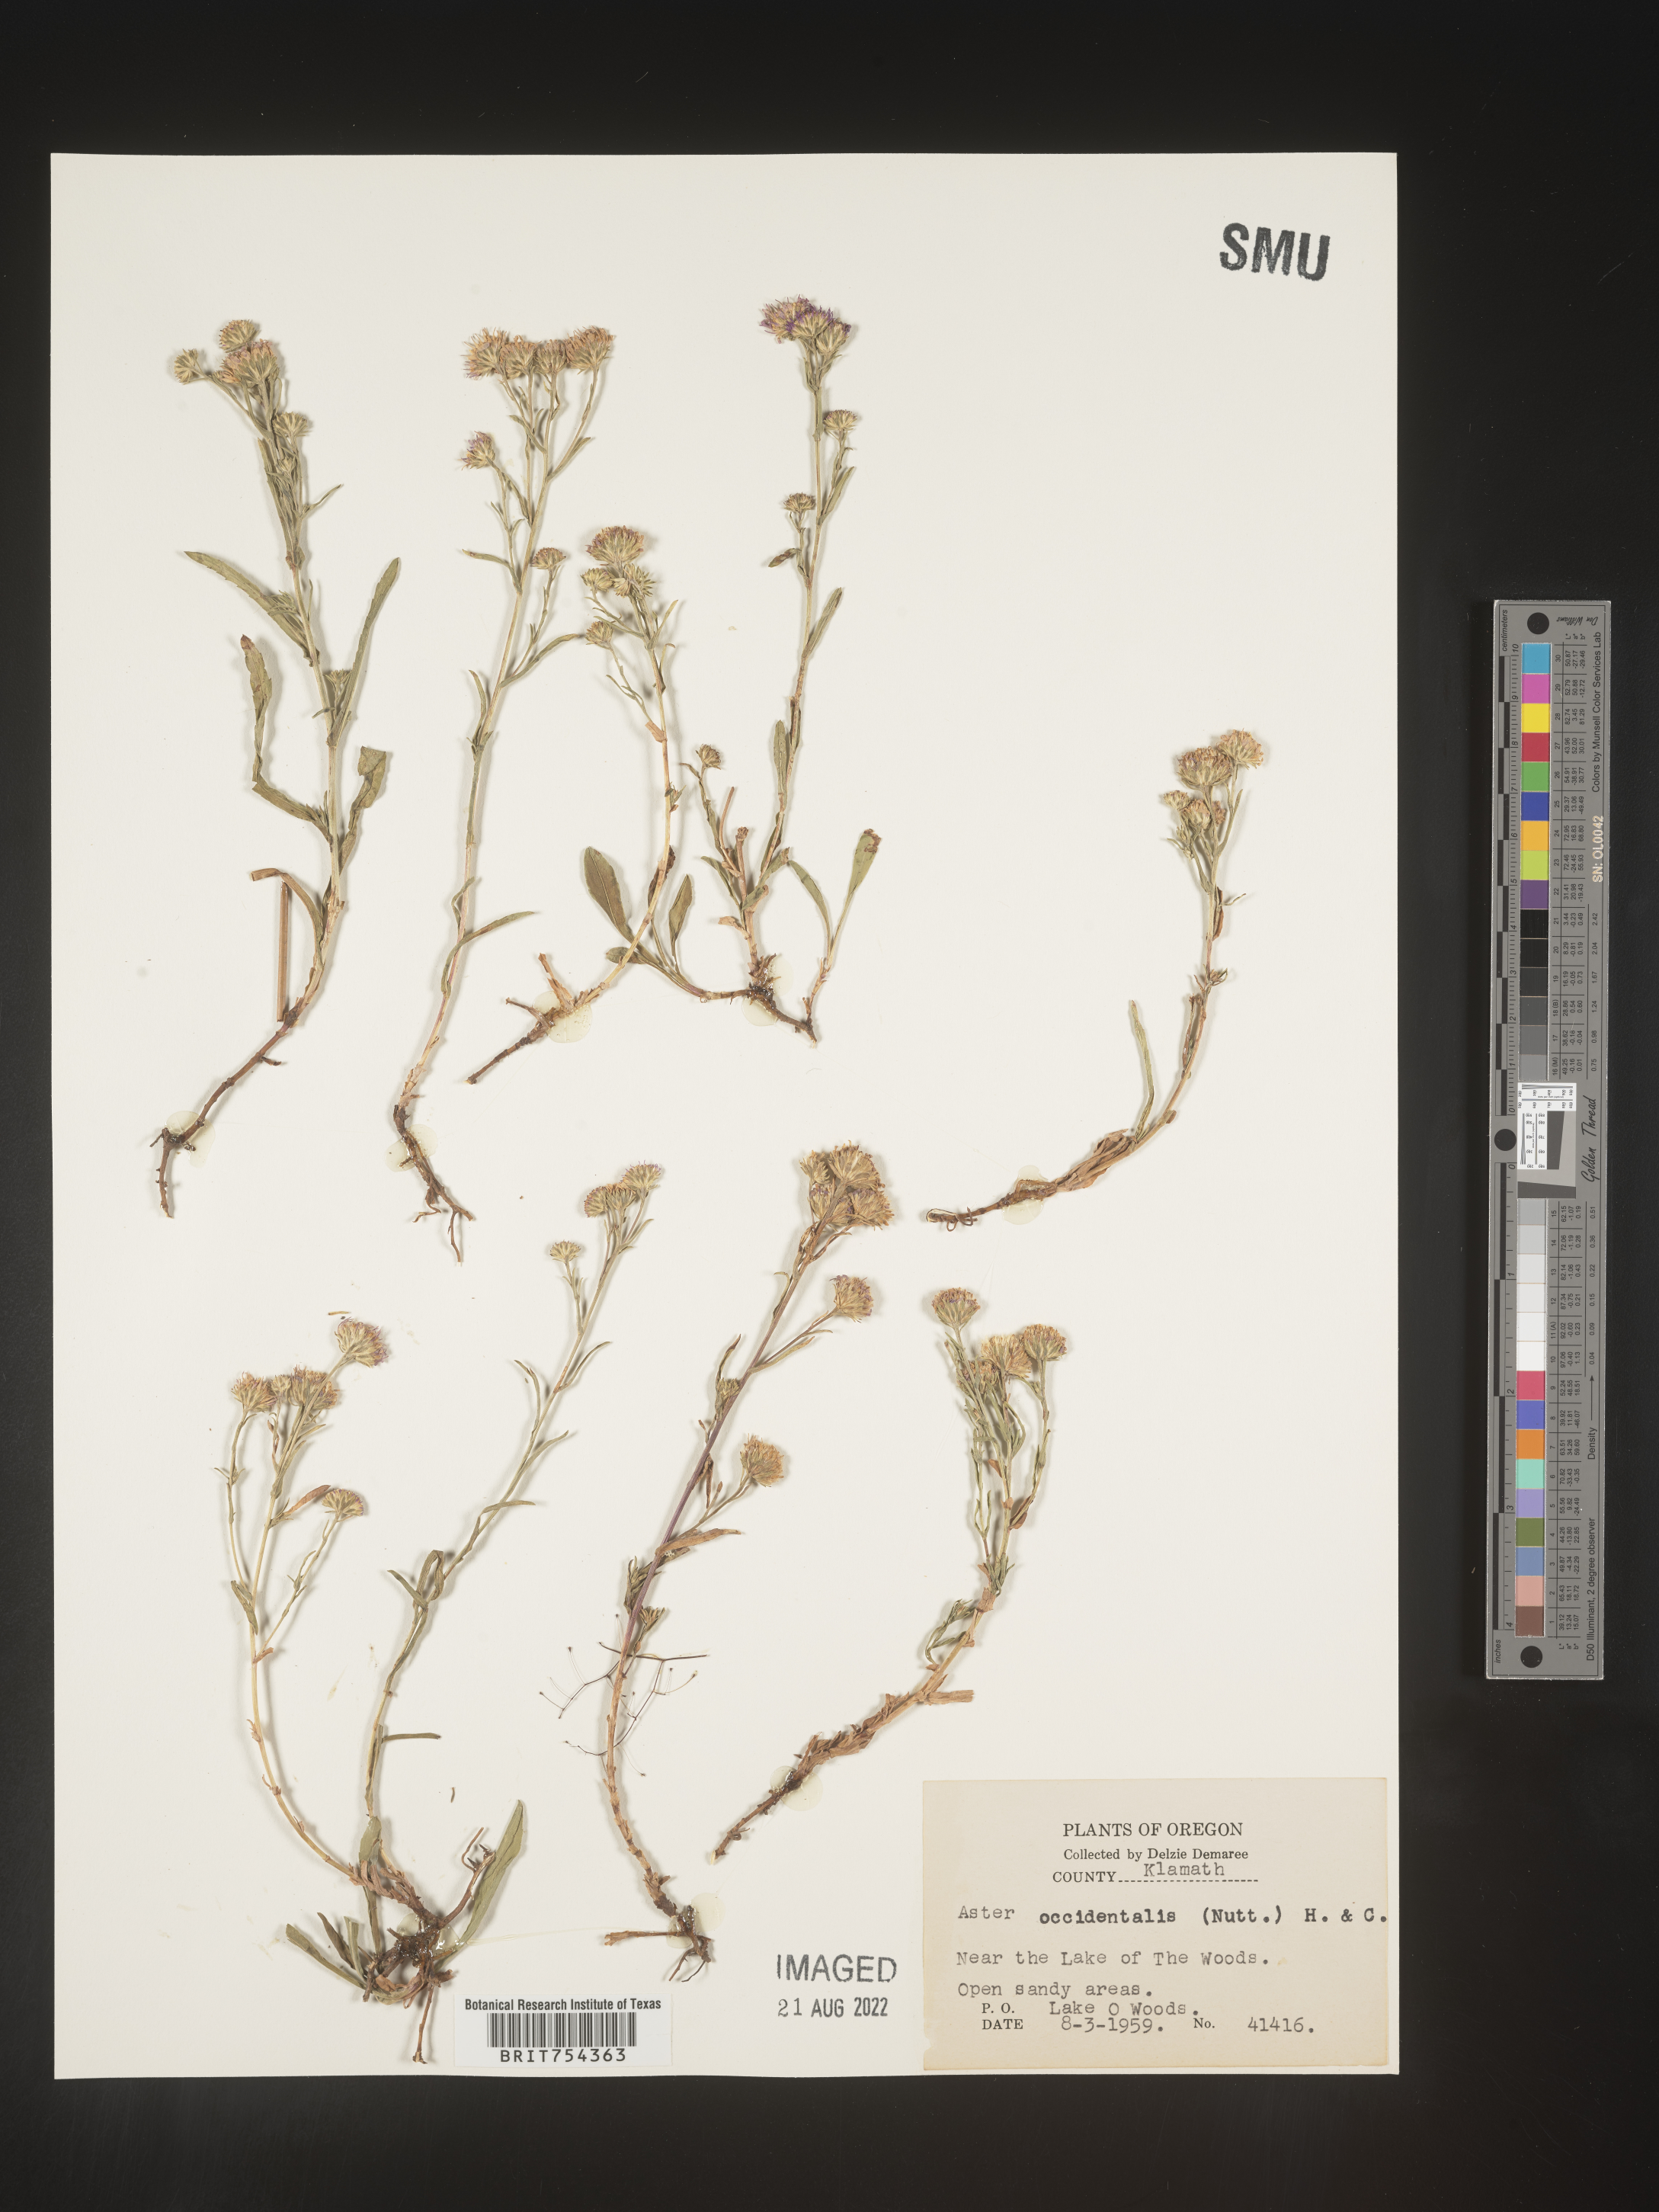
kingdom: Plantae
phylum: Tracheophyta
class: Magnoliopsida
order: Asterales
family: Asteraceae
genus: Symphyotrichum
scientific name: Symphyotrichum spathulatum
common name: Western mountain aster
